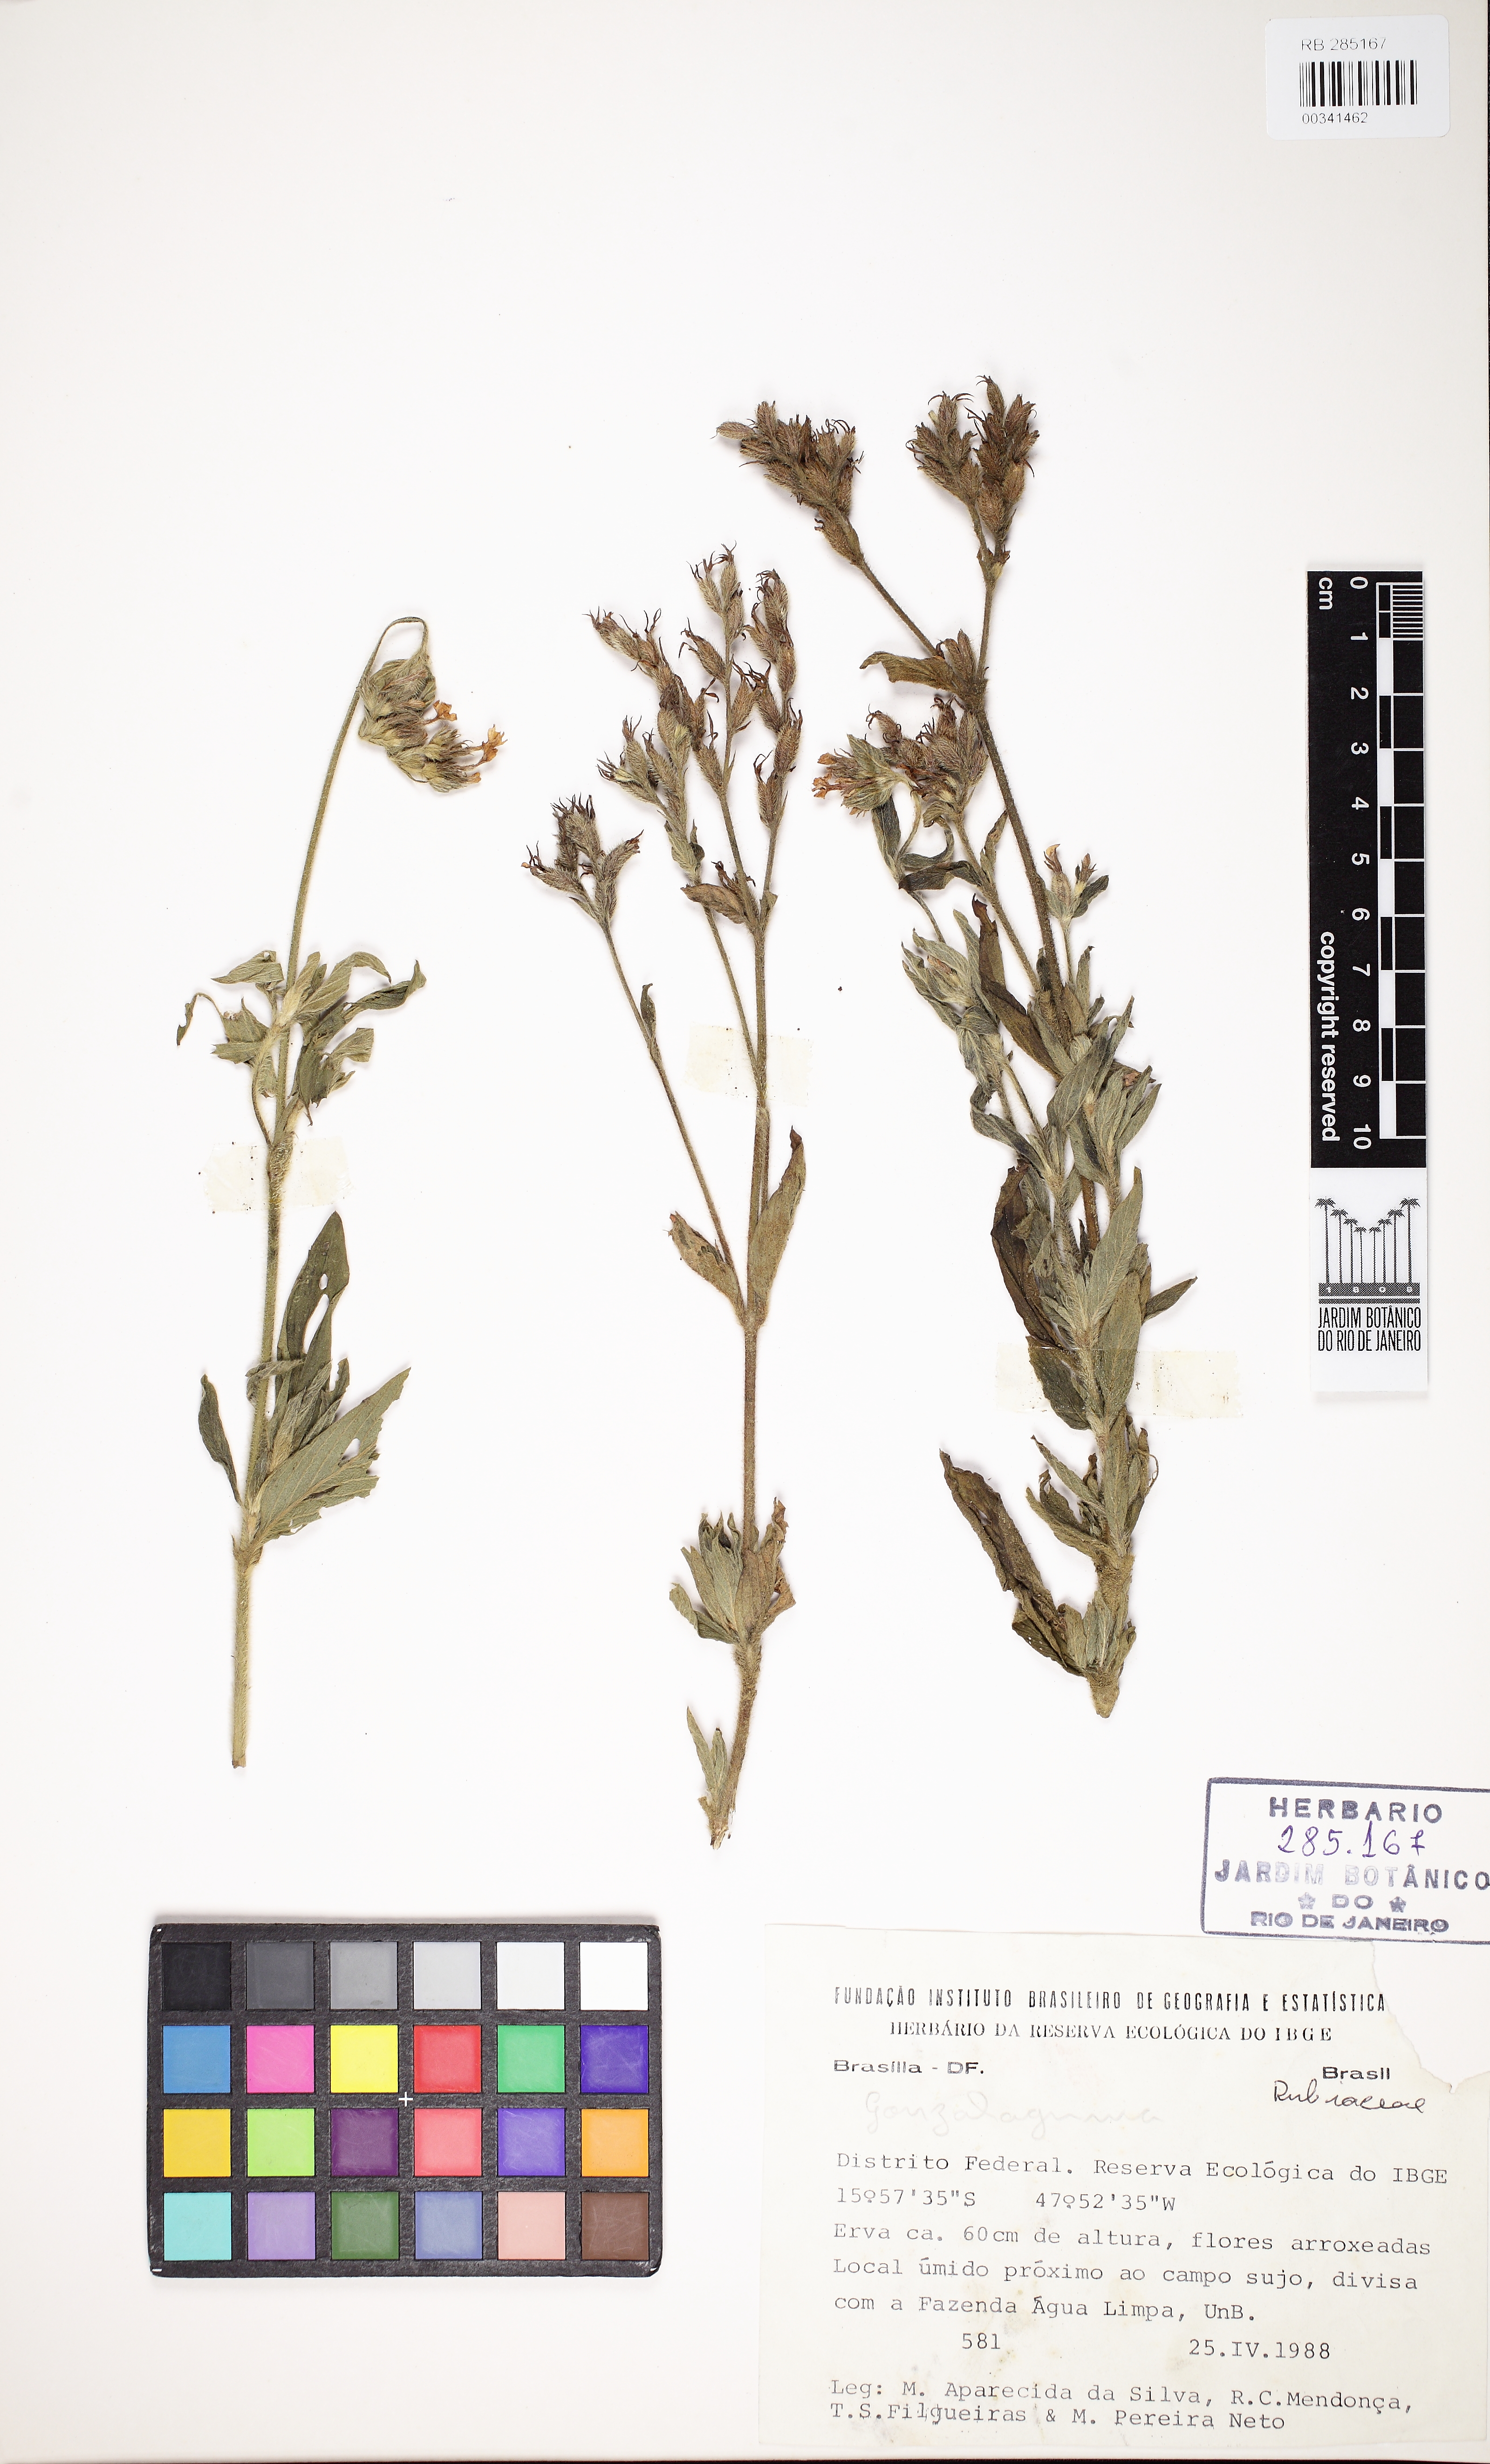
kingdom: Plantae
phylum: Tracheophyta
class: Magnoliopsida
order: Gentianales
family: Rubiaceae
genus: Sipanea
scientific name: Sipanea hispida
